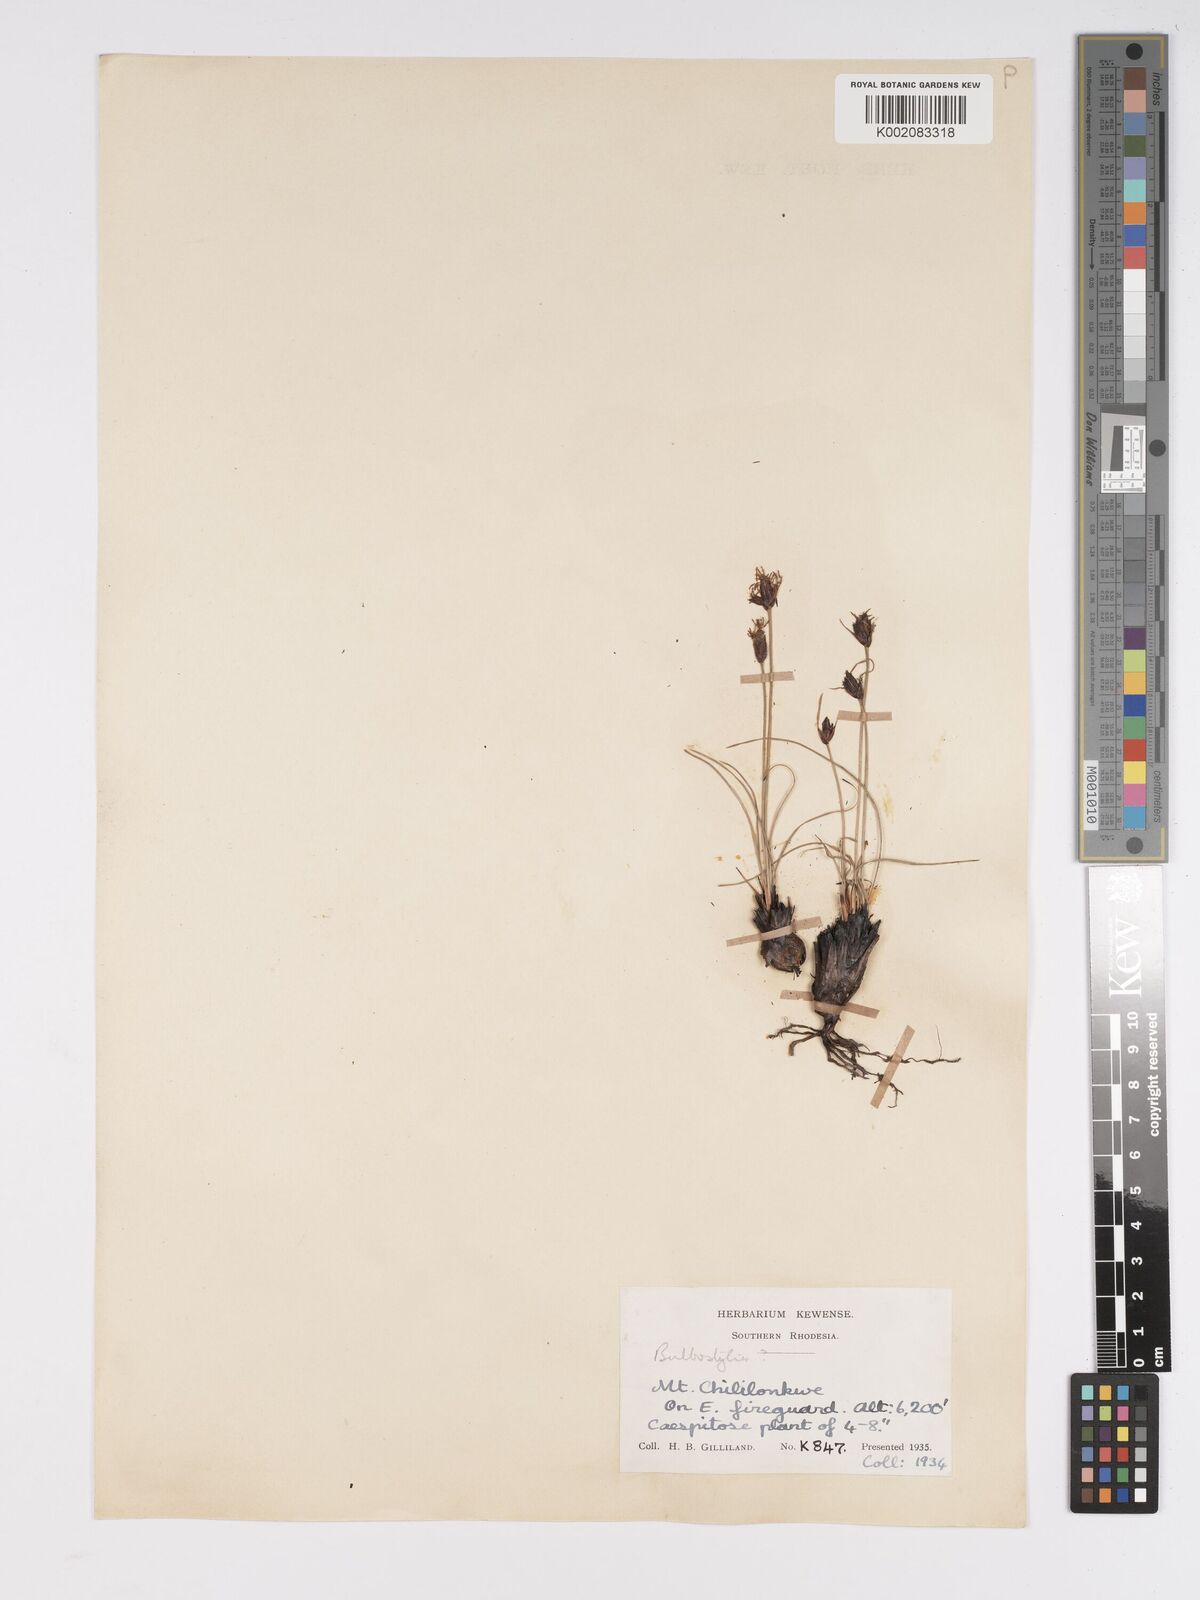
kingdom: Plantae
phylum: Tracheophyta
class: Liliopsida
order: Poales
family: Cyperaceae
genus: Bulbostylis
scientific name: Bulbostylis schoenoides
